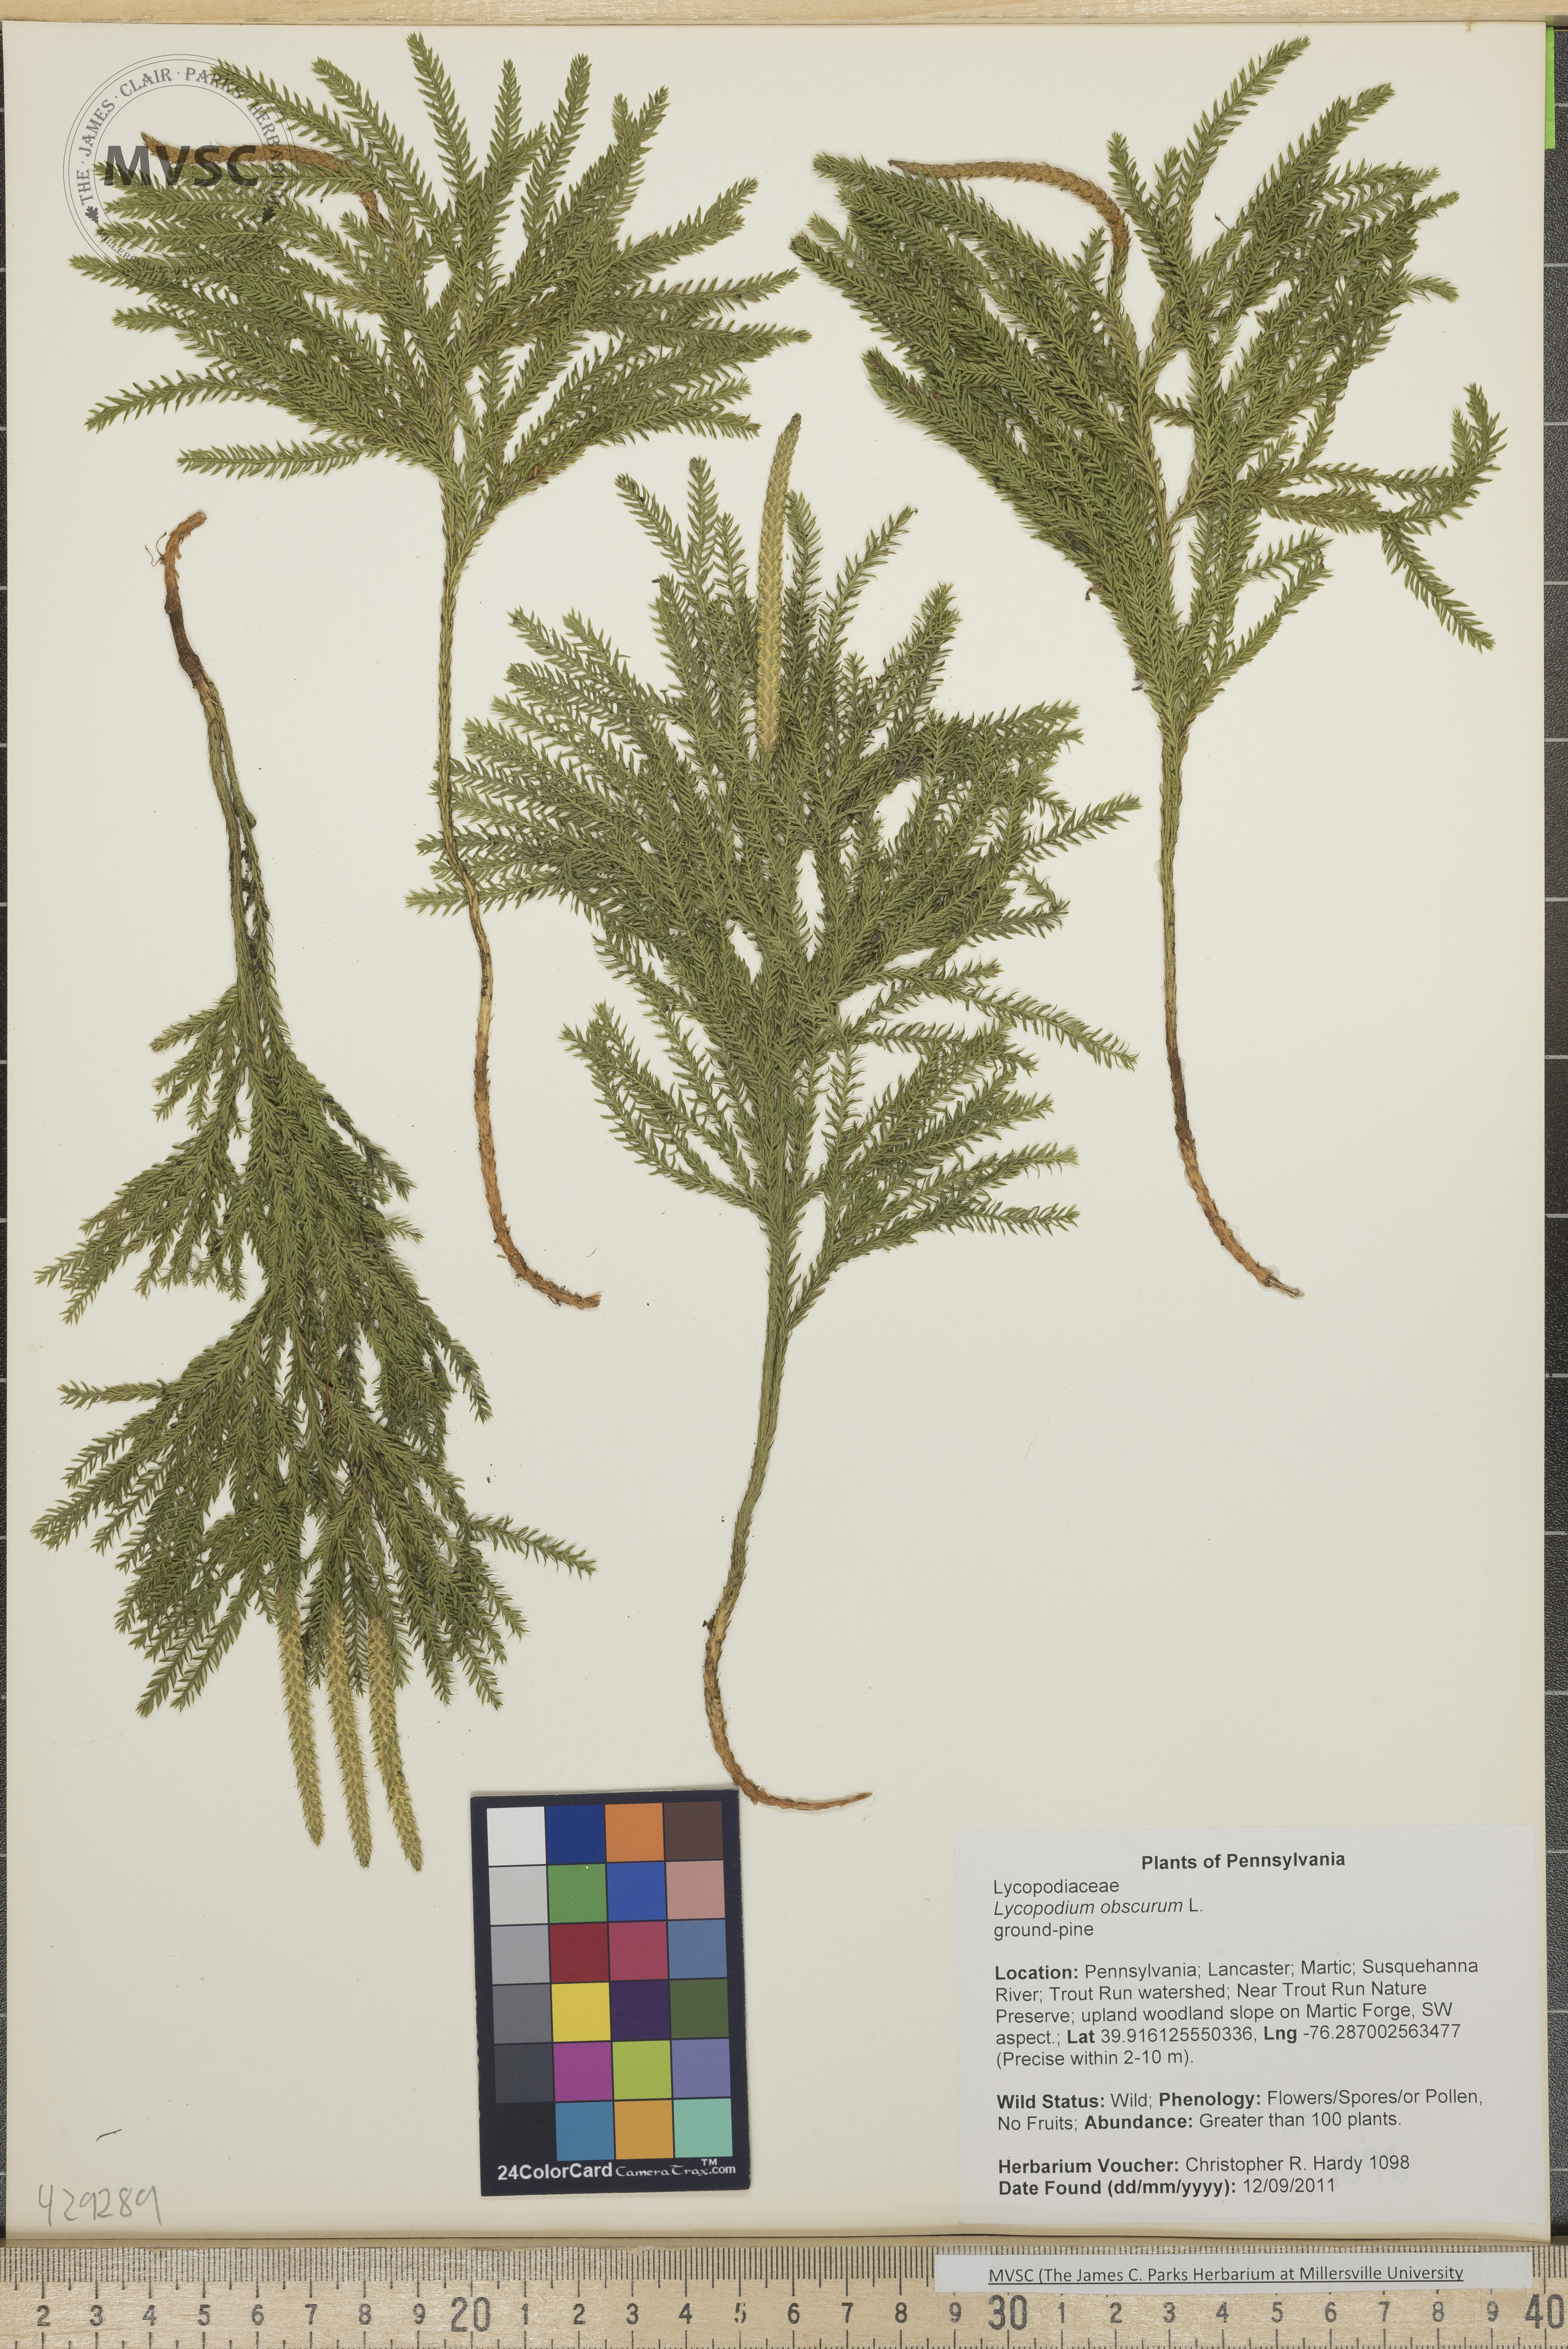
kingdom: Plantae
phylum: Tracheophyta
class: Lycopodiopsida
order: Lycopodiales
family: Lycopodiaceae
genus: Dendrolycopodium
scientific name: Dendrolycopodium obscurum
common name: Common ground-pine
